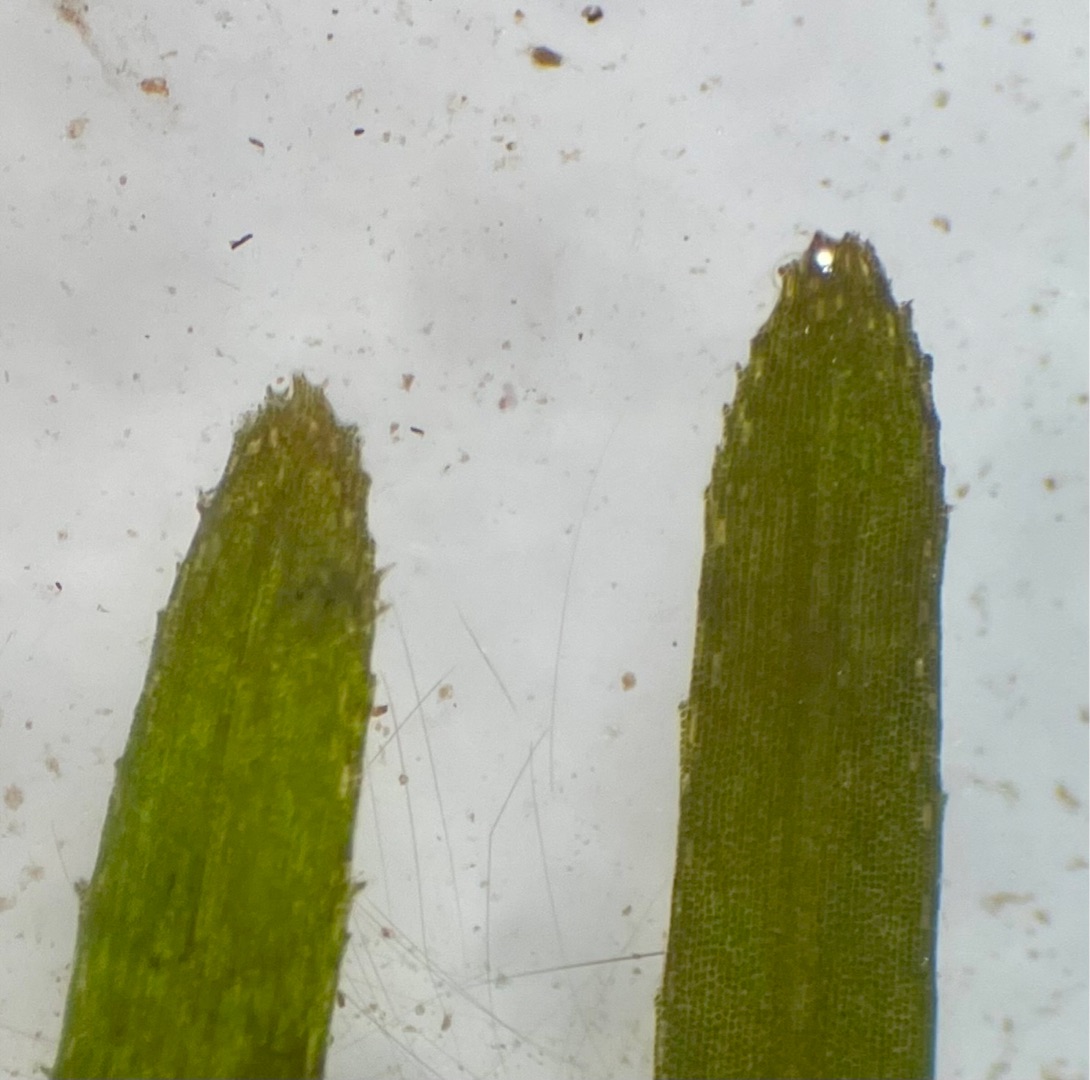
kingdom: Plantae
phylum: Tracheophyta
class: Liliopsida
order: Alismatales
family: Ruppiaceae
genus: Ruppia
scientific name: Ruppia cirrhosa
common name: Langstilket havgræs
